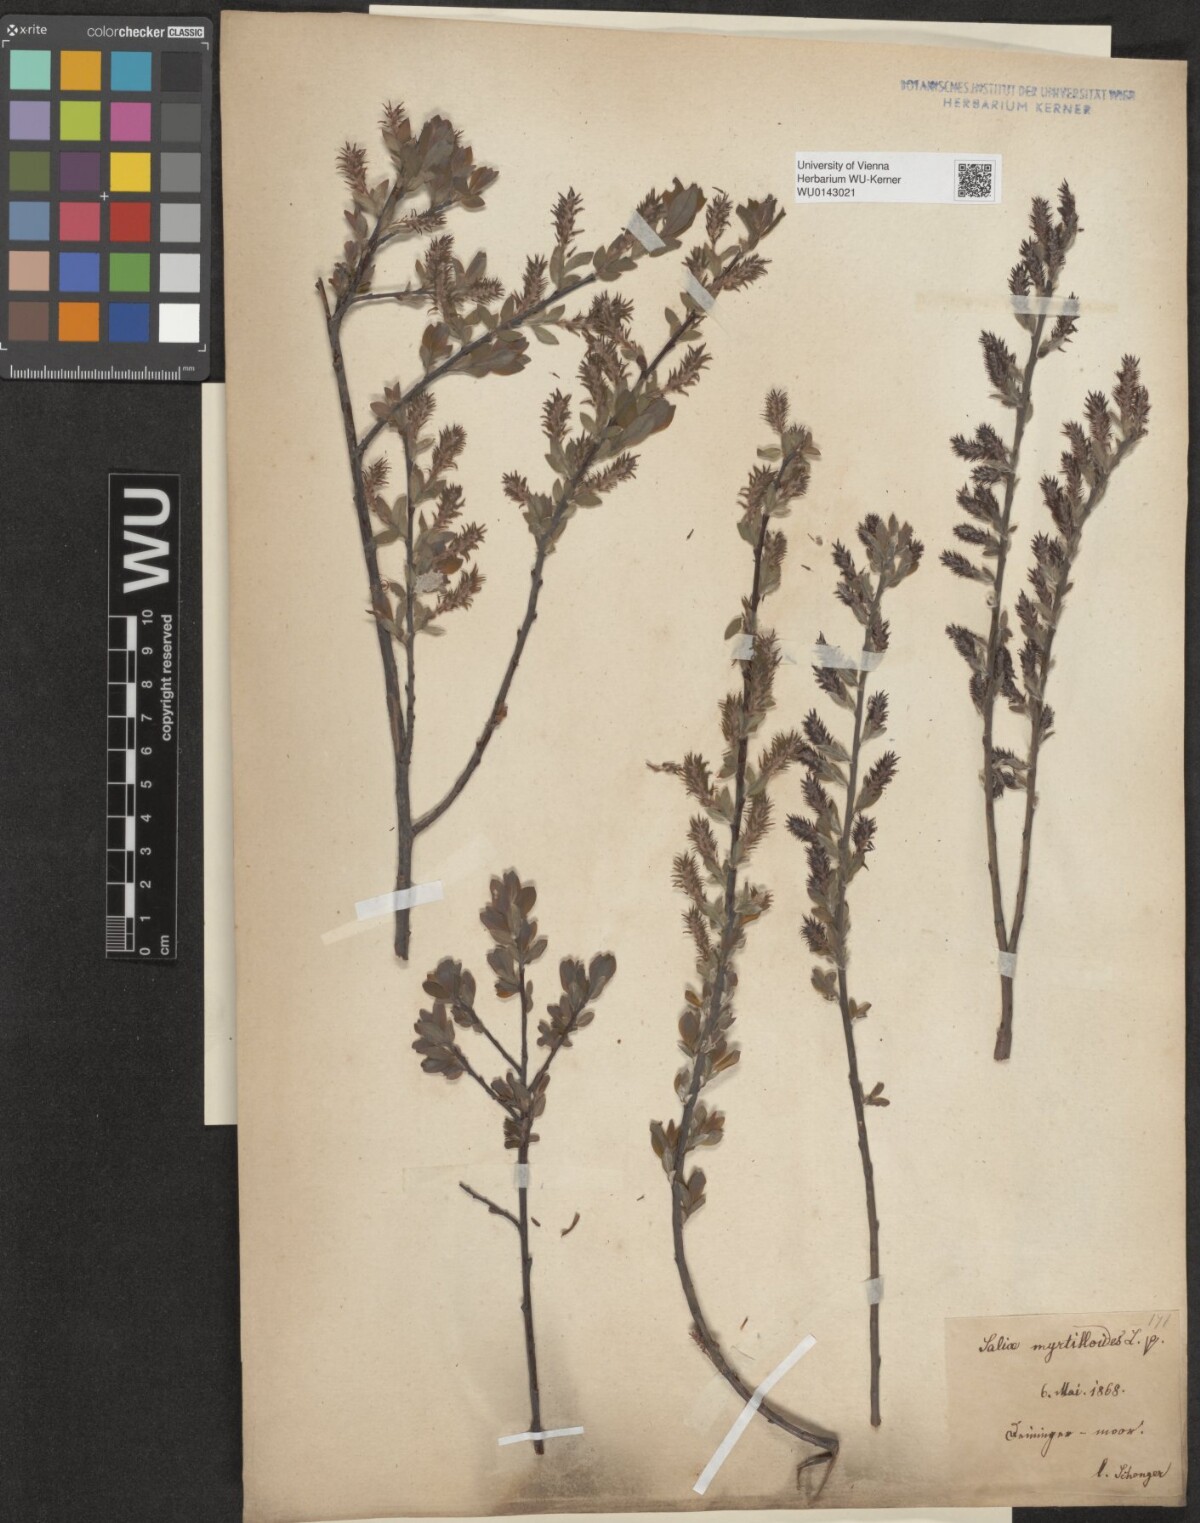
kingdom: Plantae
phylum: Tracheophyta
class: Magnoliopsida
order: Malpighiales
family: Salicaceae
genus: Salix
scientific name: Salix myrtilloides
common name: Myrtle-leaved willow
